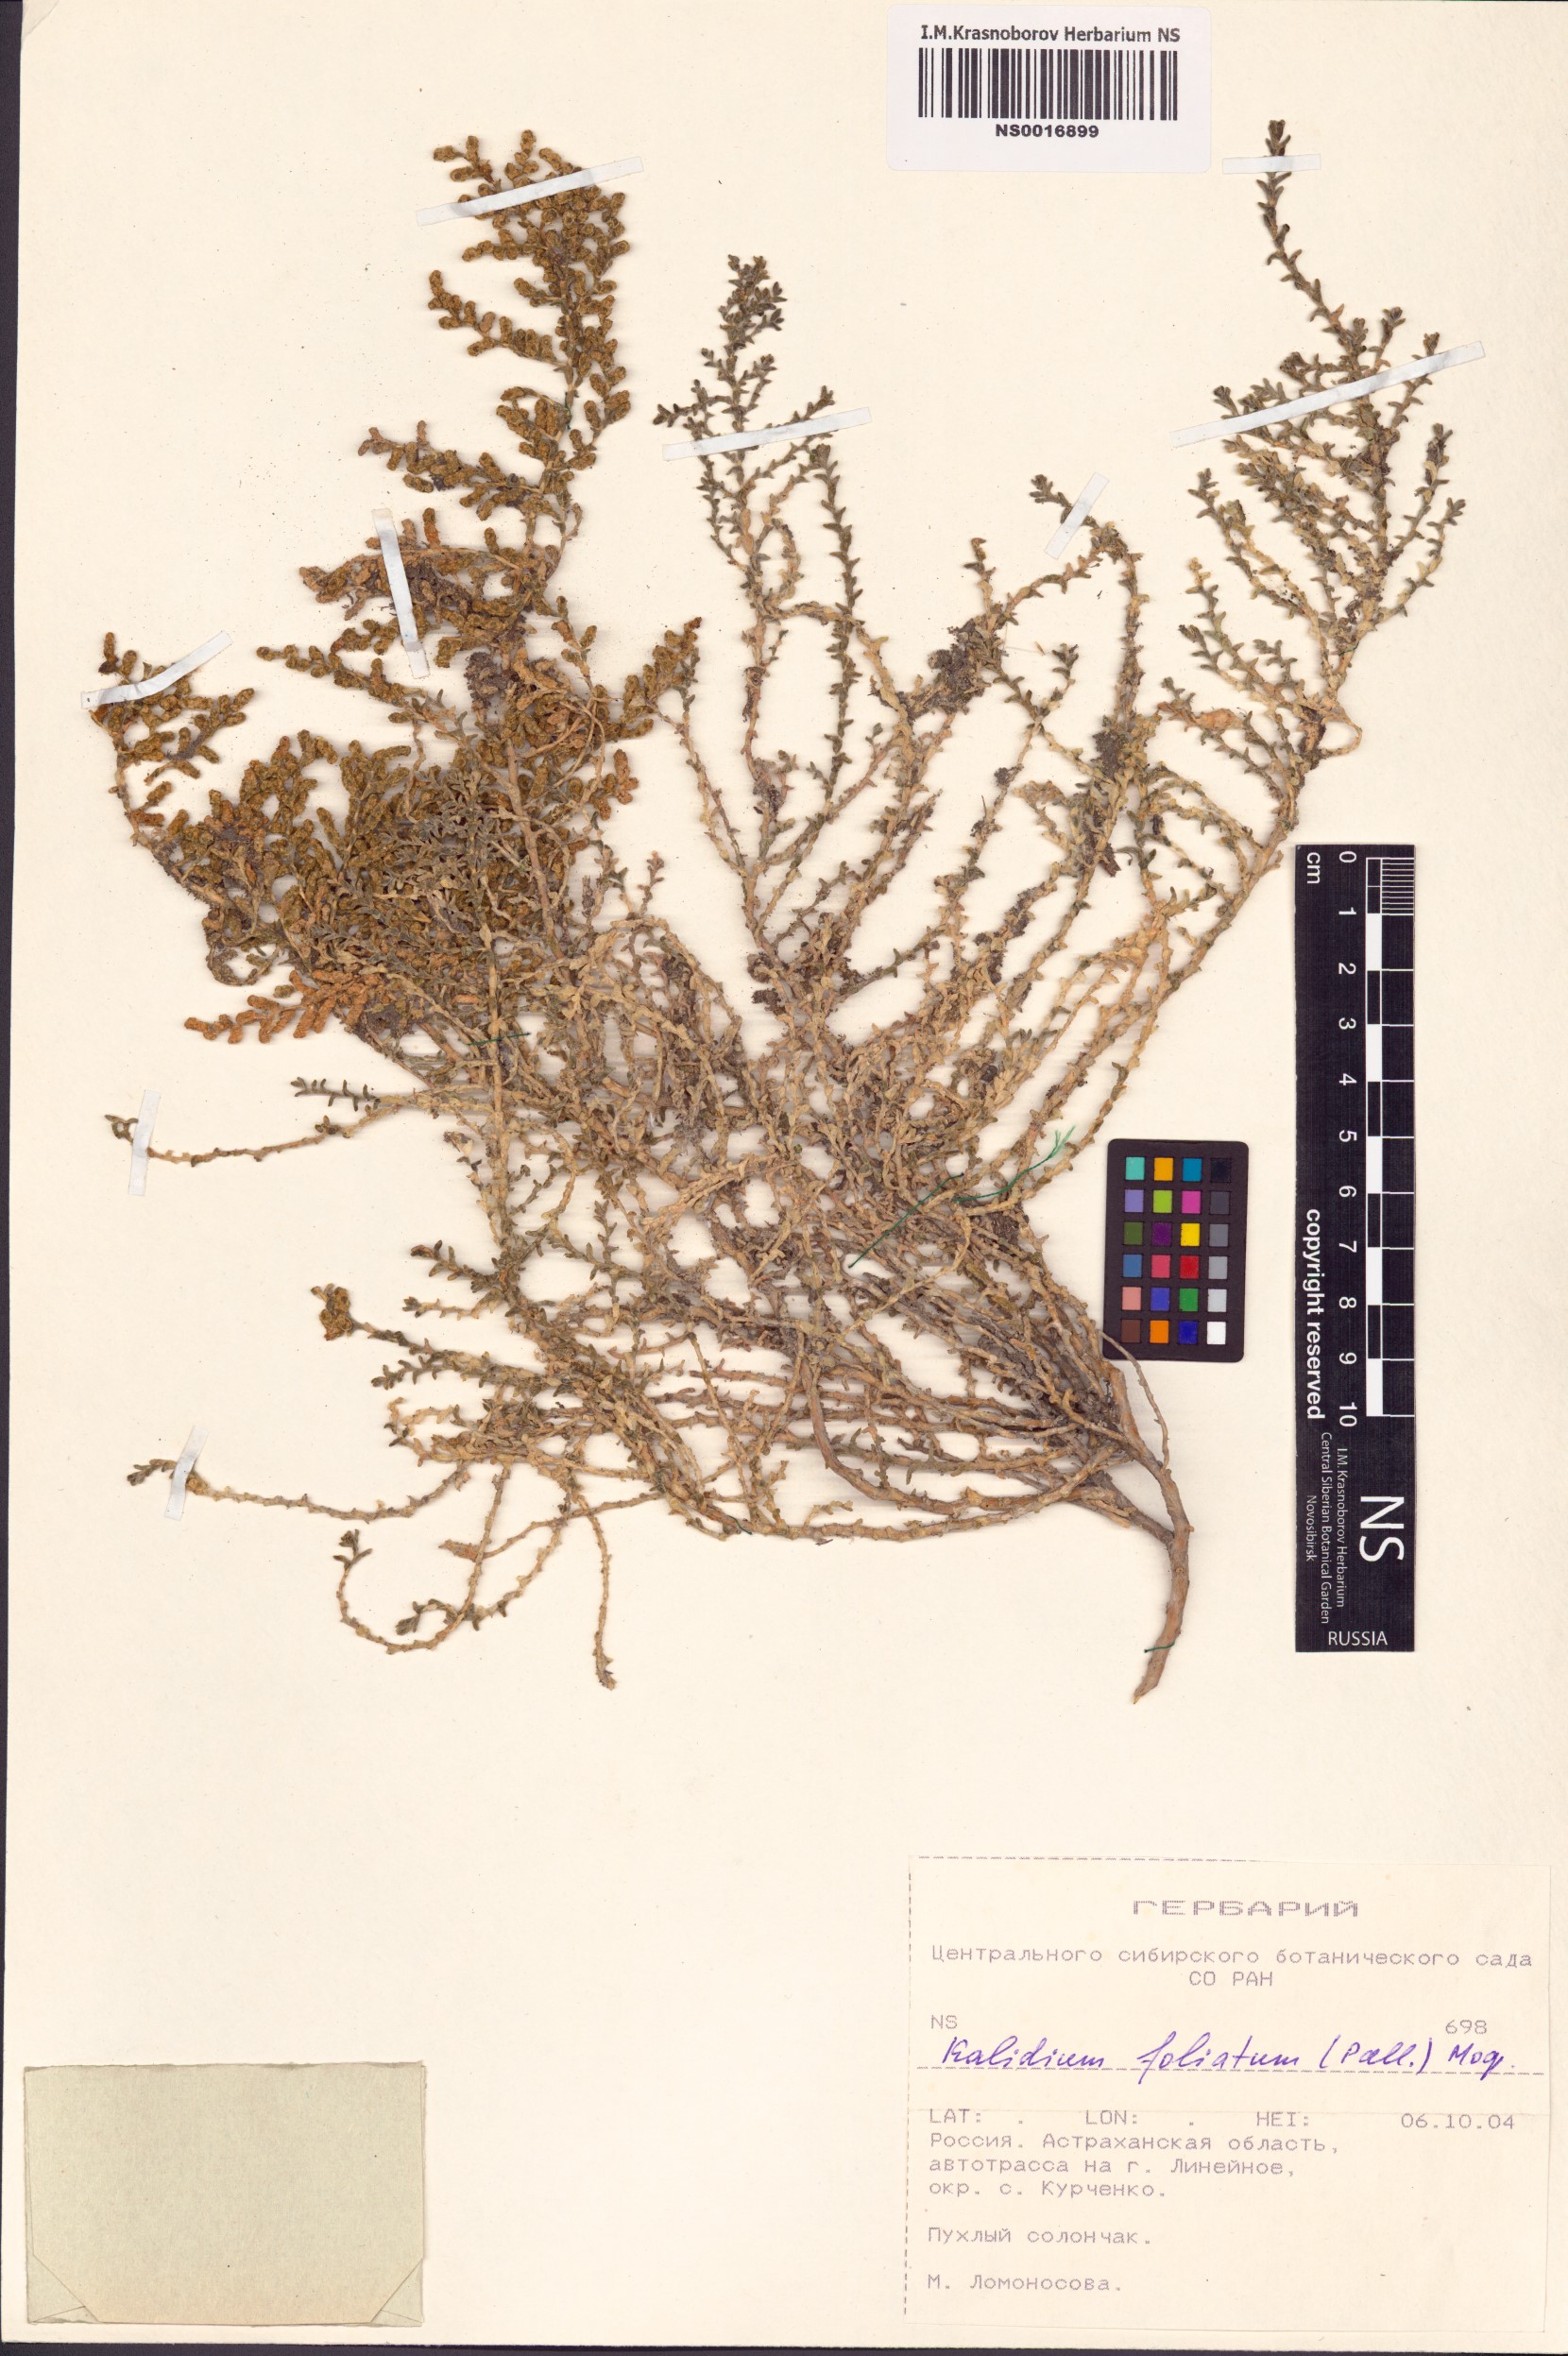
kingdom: Plantae
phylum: Tracheophyta
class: Magnoliopsida
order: Caryophyllales
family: Amaranthaceae
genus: Kalidium
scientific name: Kalidium foliatum
